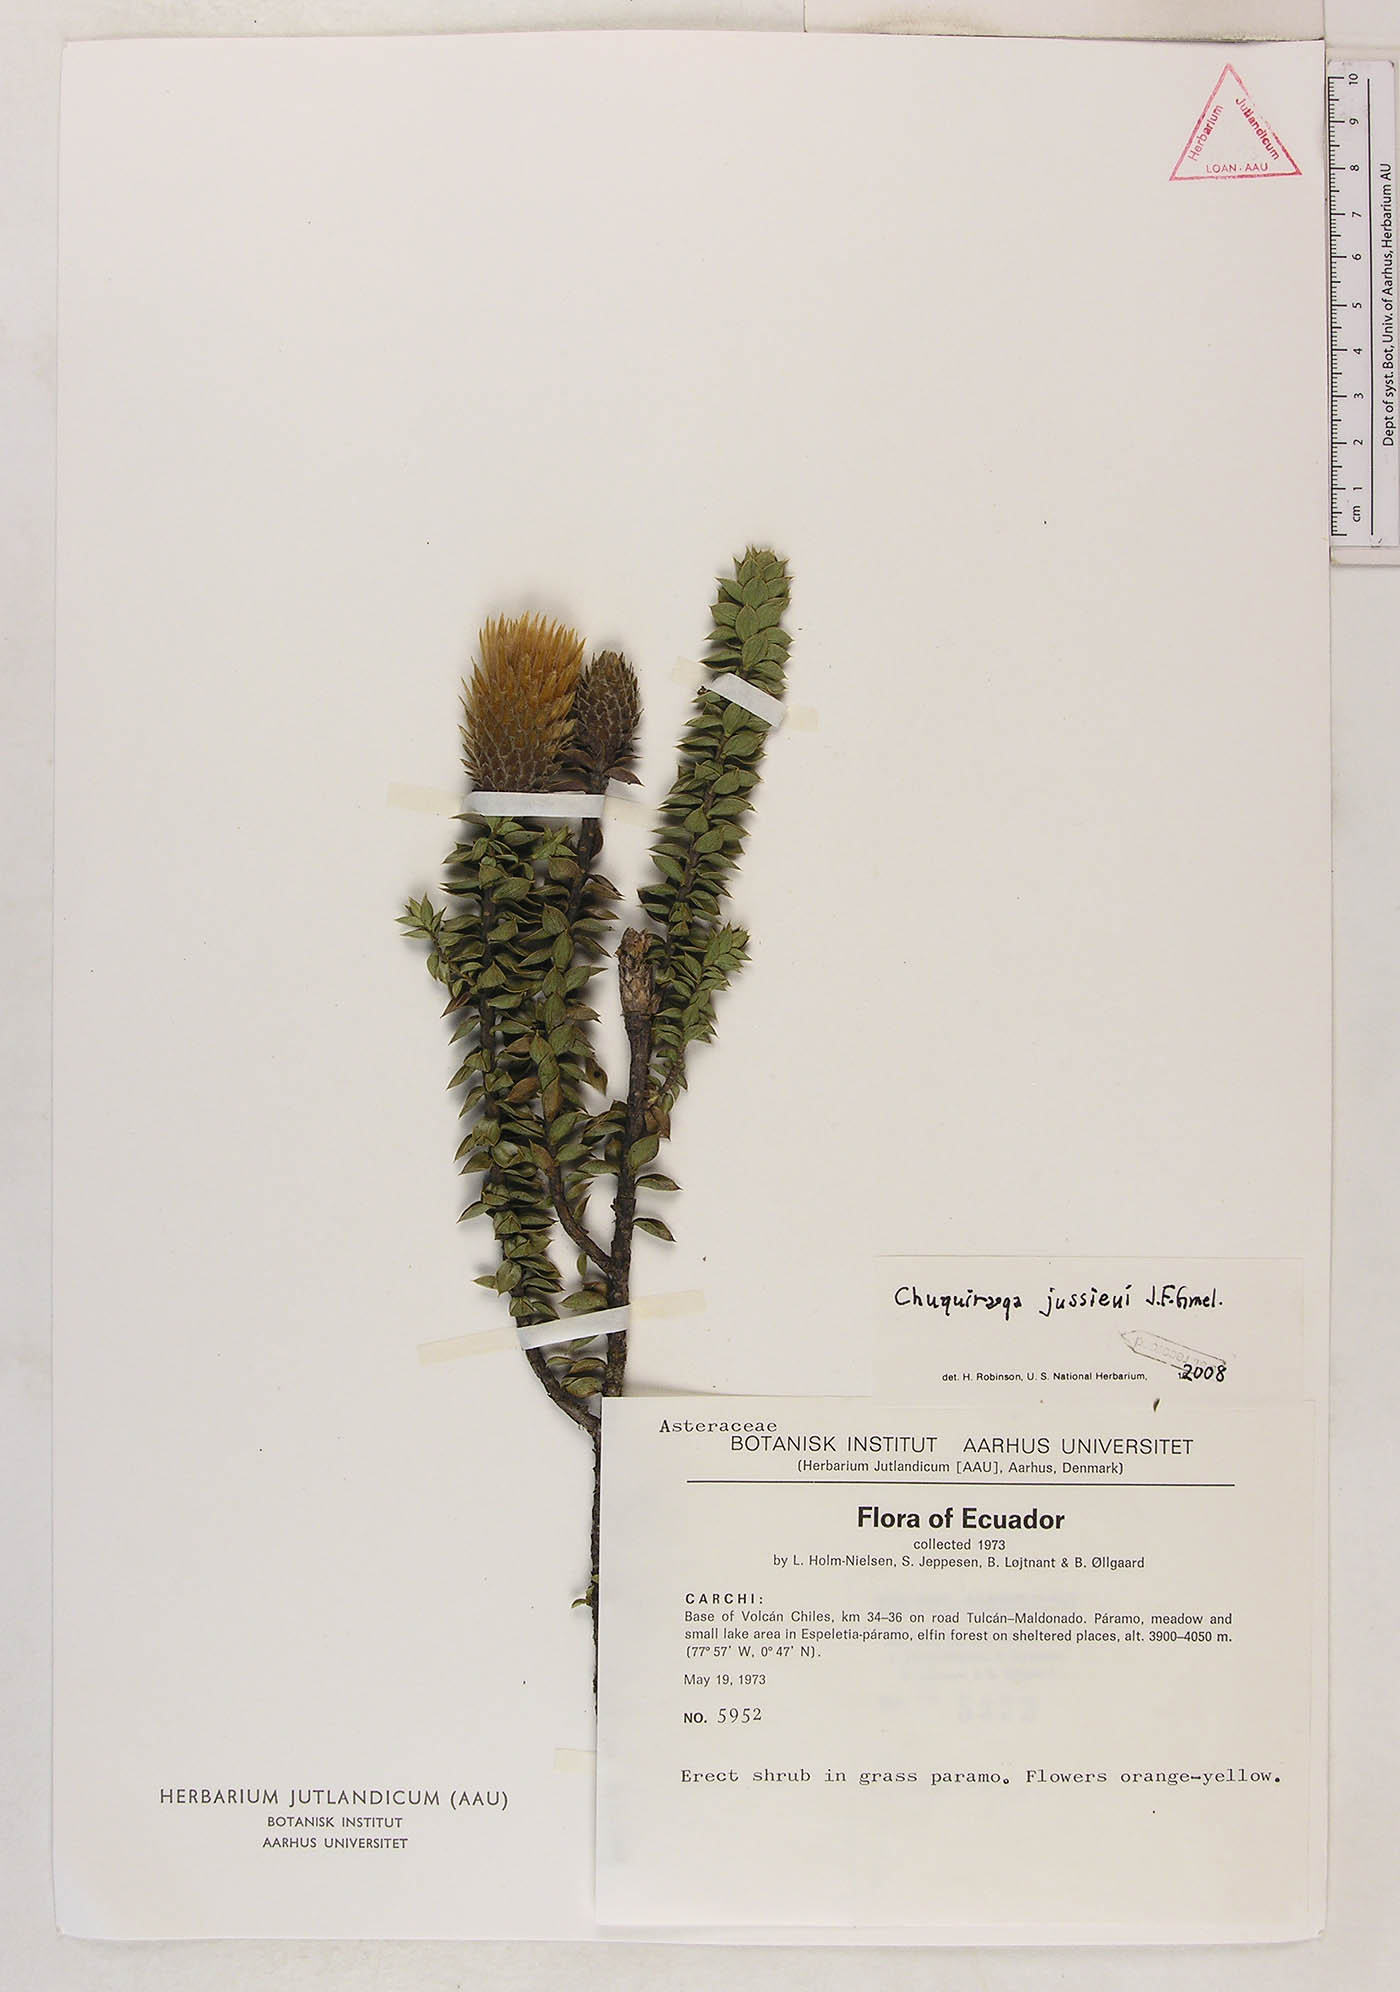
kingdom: Plantae
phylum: Tracheophyta
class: Magnoliopsida
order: Asterales
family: Asteraceae
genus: Chuquiraga
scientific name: Chuquiraga jussieui
